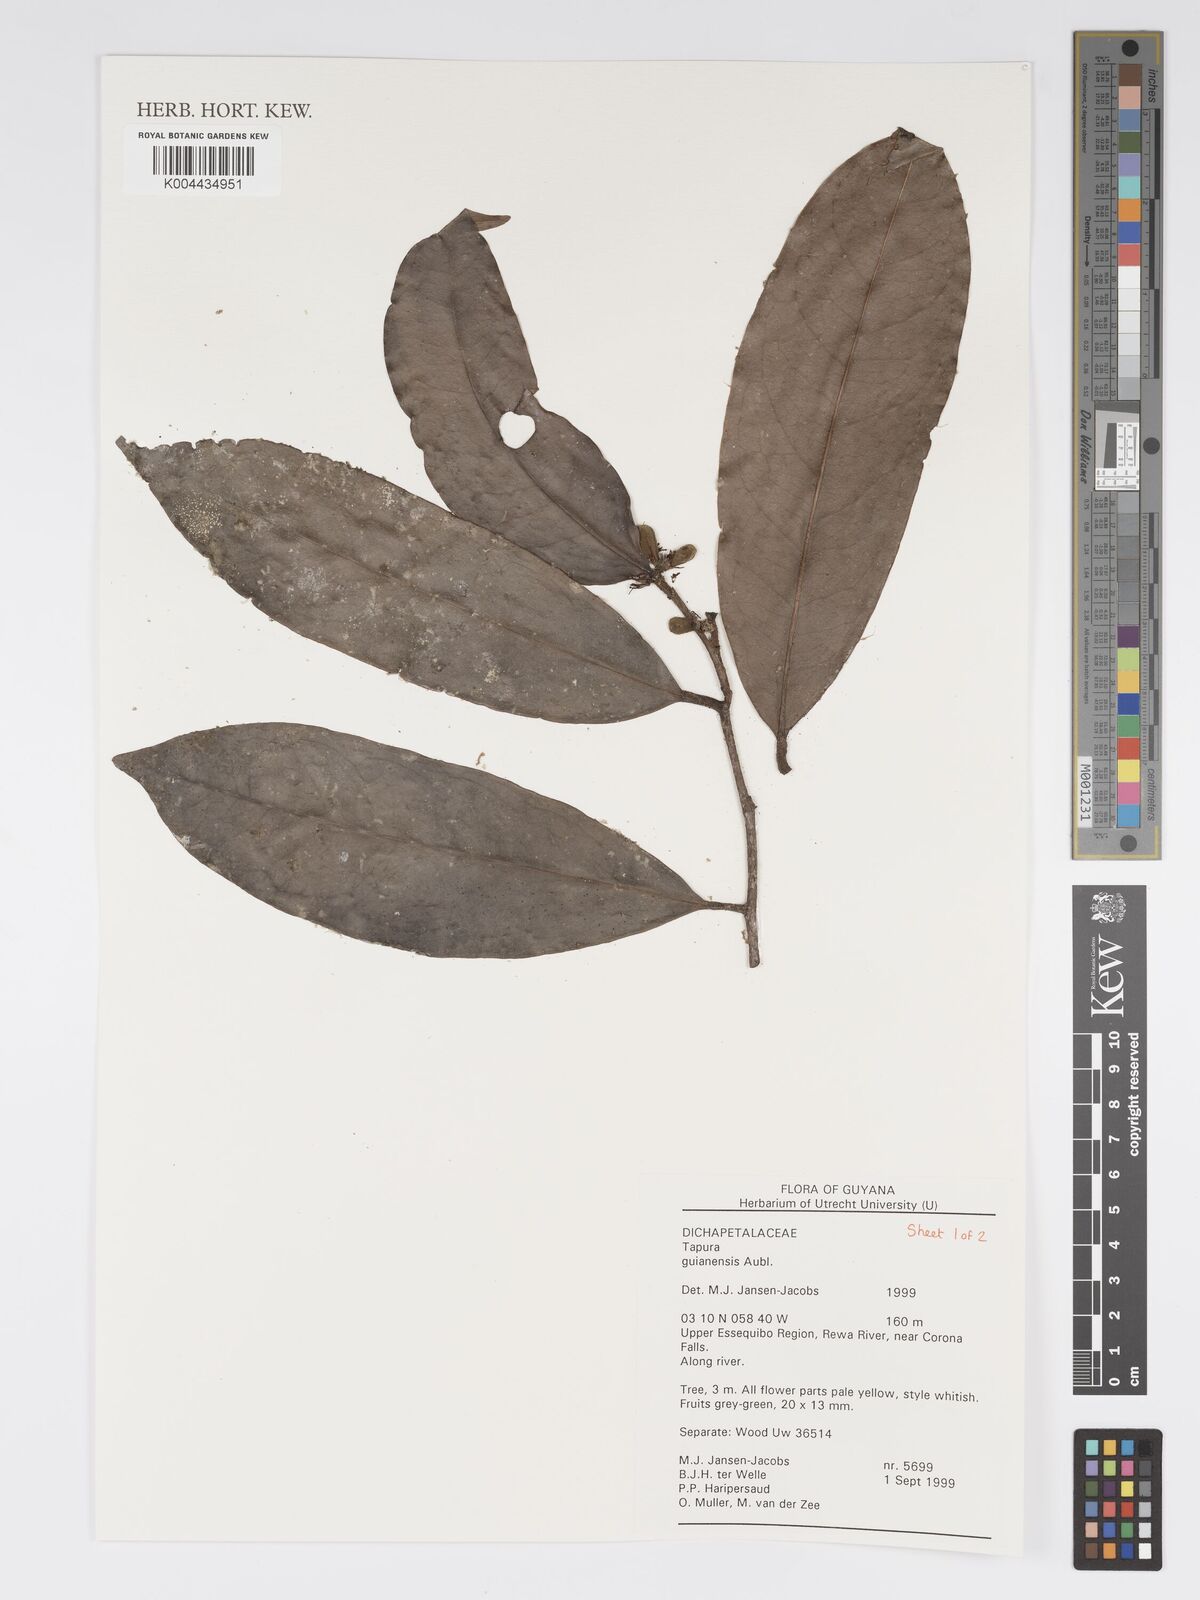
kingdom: Plantae
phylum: Tracheophyta
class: Magnoliopsida
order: Malpighiales
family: Dichapetalaceae
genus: Tapura
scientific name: Tapura guianensis
